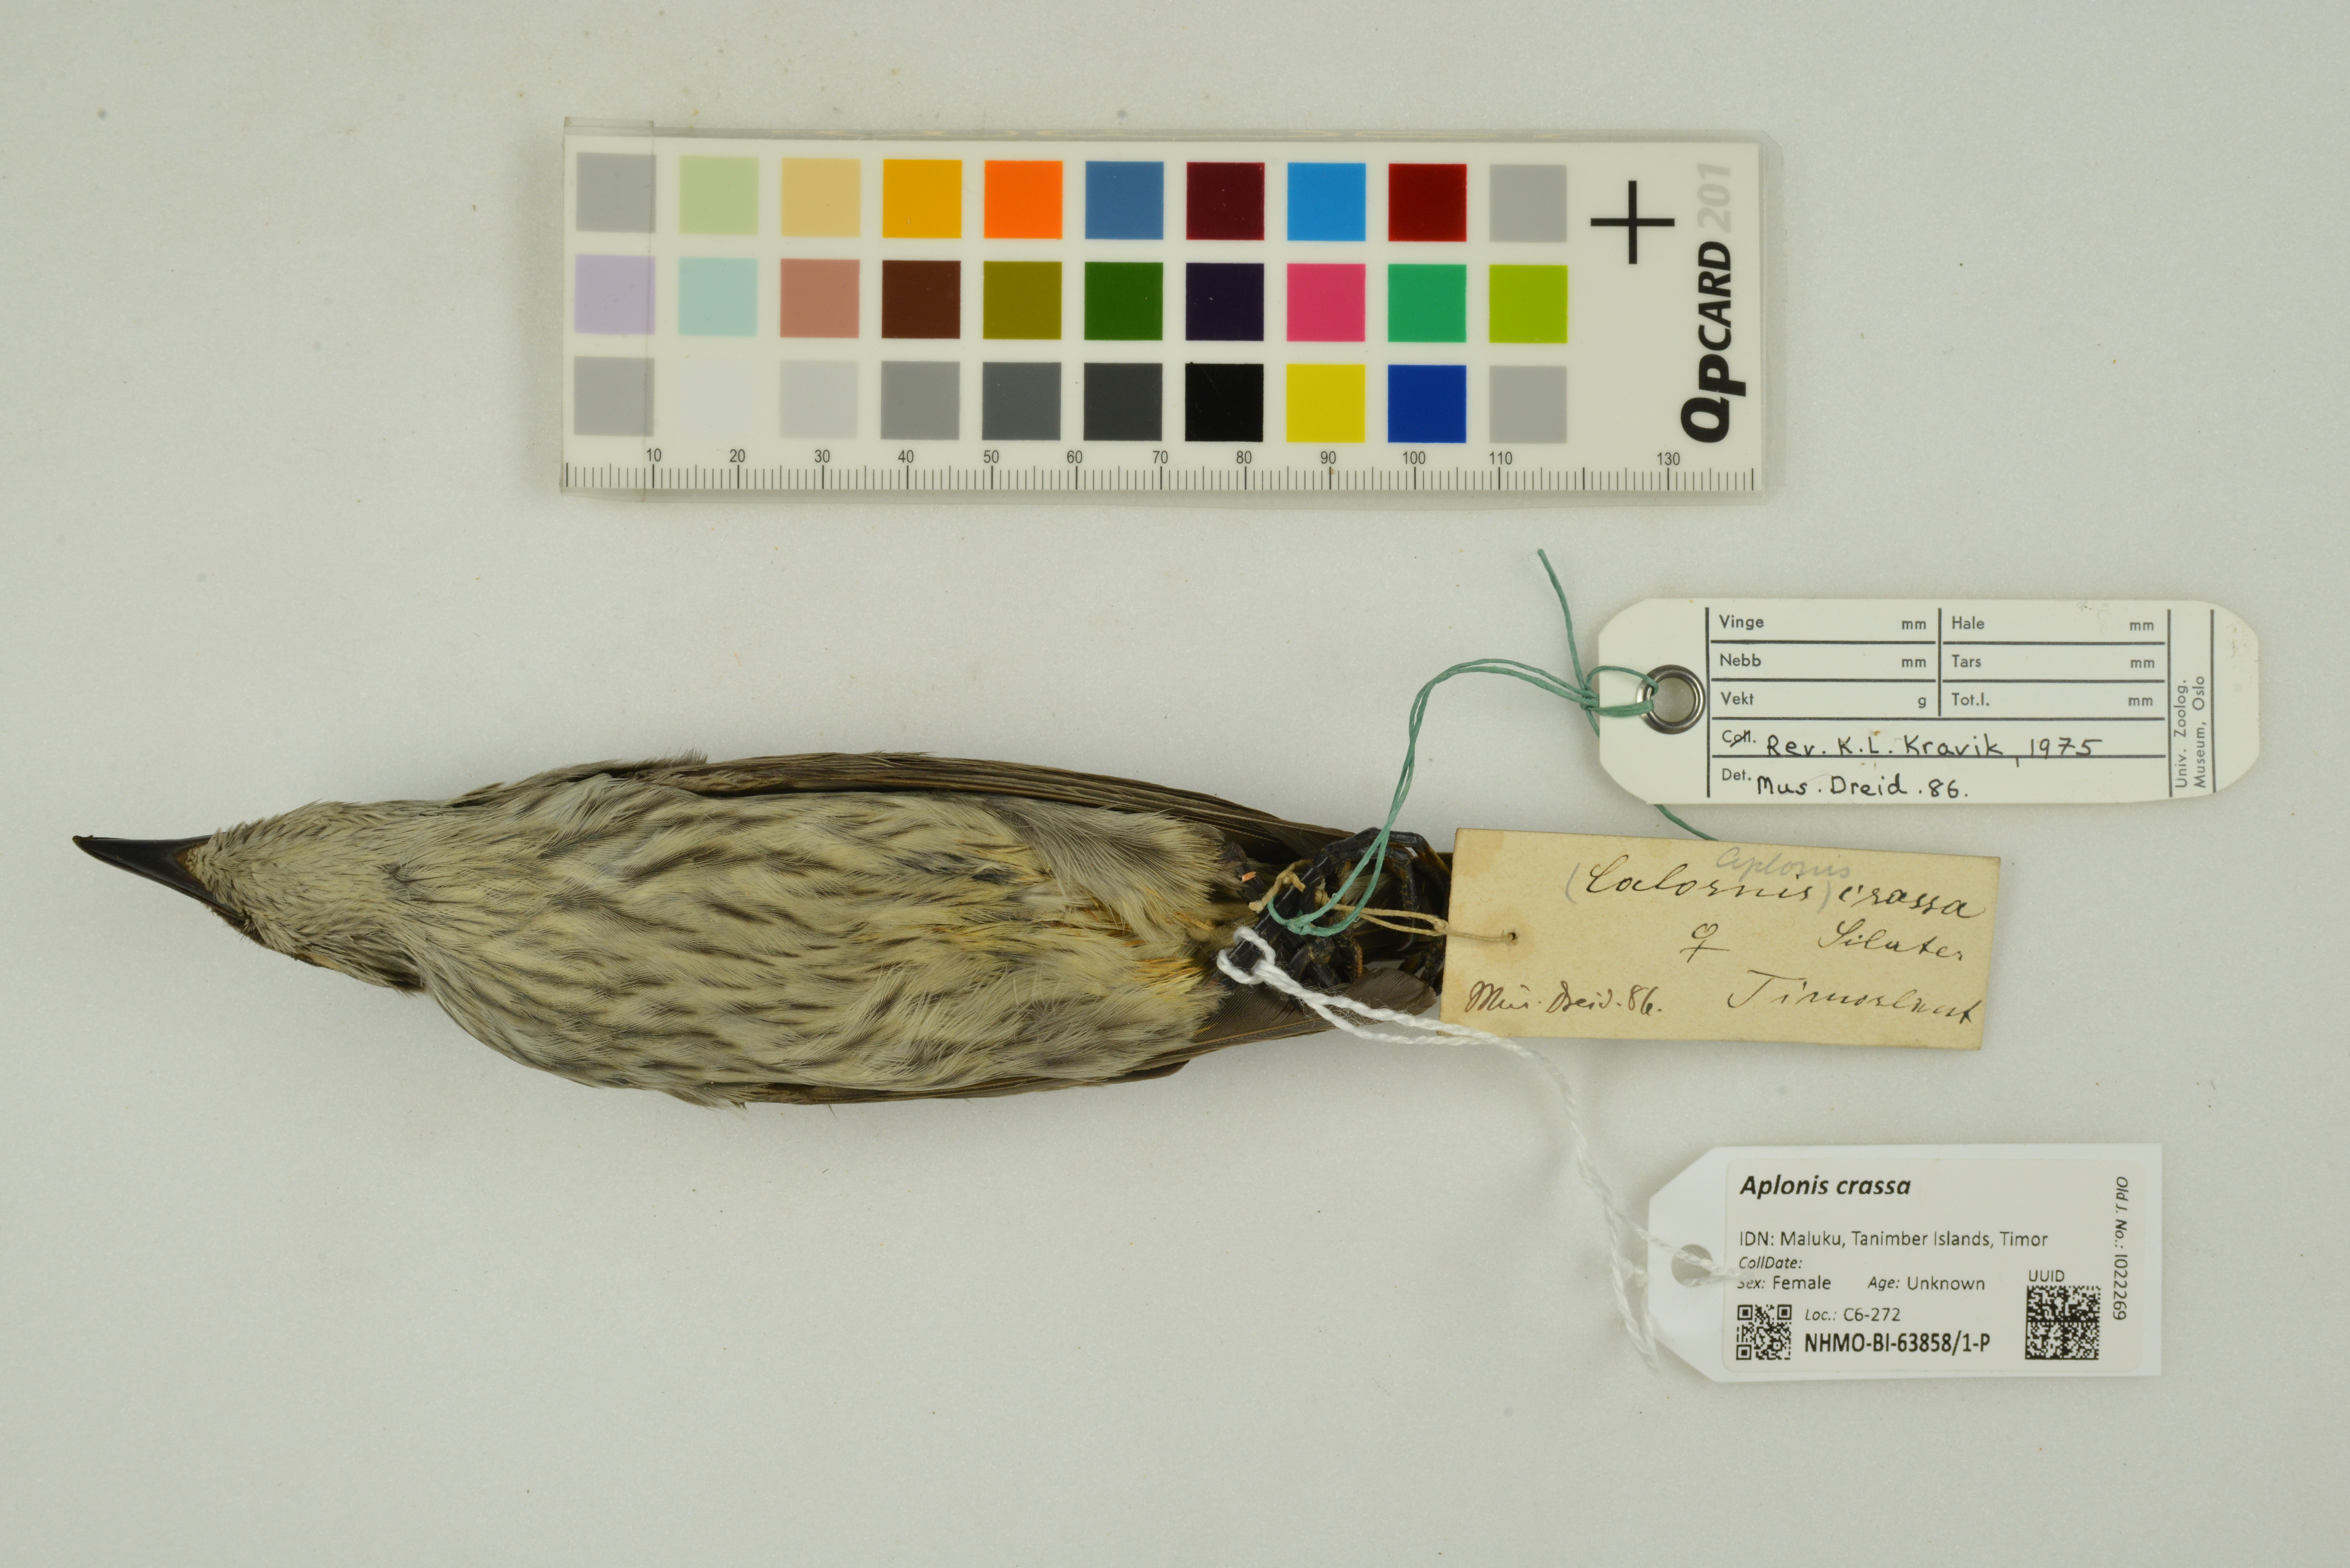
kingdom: Animalia
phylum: Chordata
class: Aves
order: Passeriformes
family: Sturnidae
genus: Aplonis
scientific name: Aplonis crassa
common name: Tanimbar starling
